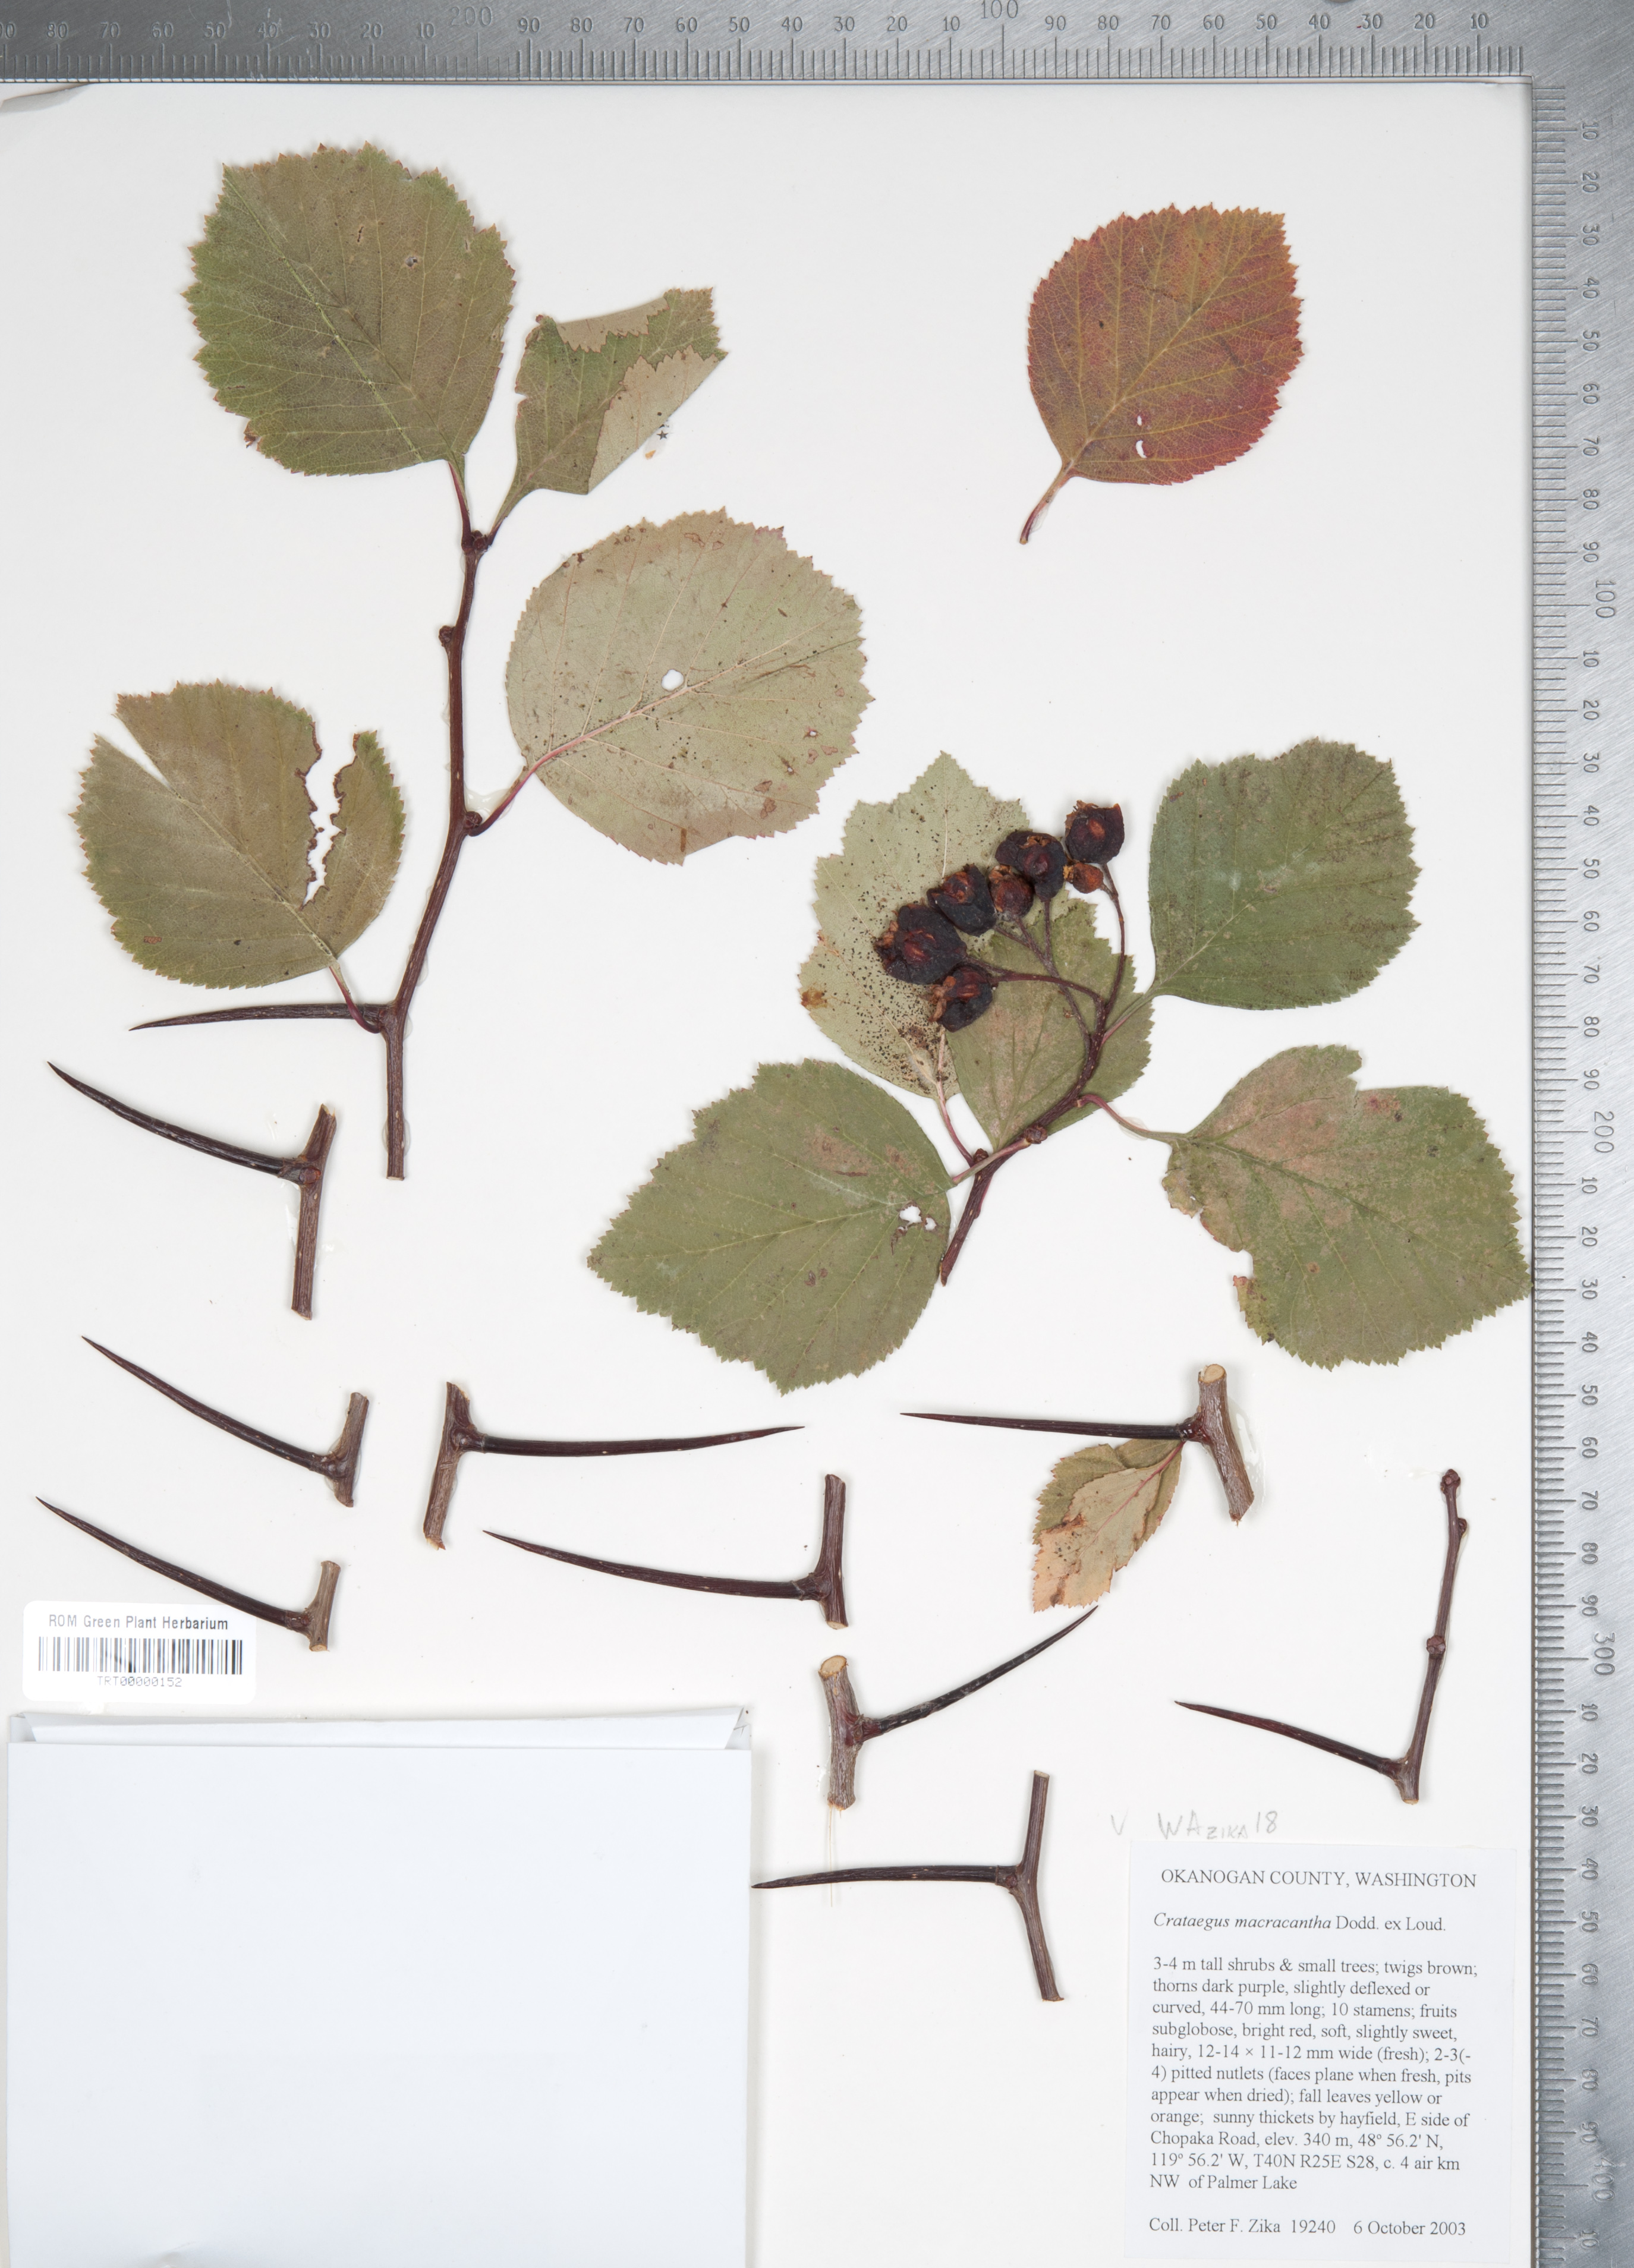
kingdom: Plantae
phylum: Tracheophyta
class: Magnoliopsida
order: Rosales
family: Rosaceae
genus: Crataegus
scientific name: Crataegus macracantha
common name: Large-thorn hawthorn
